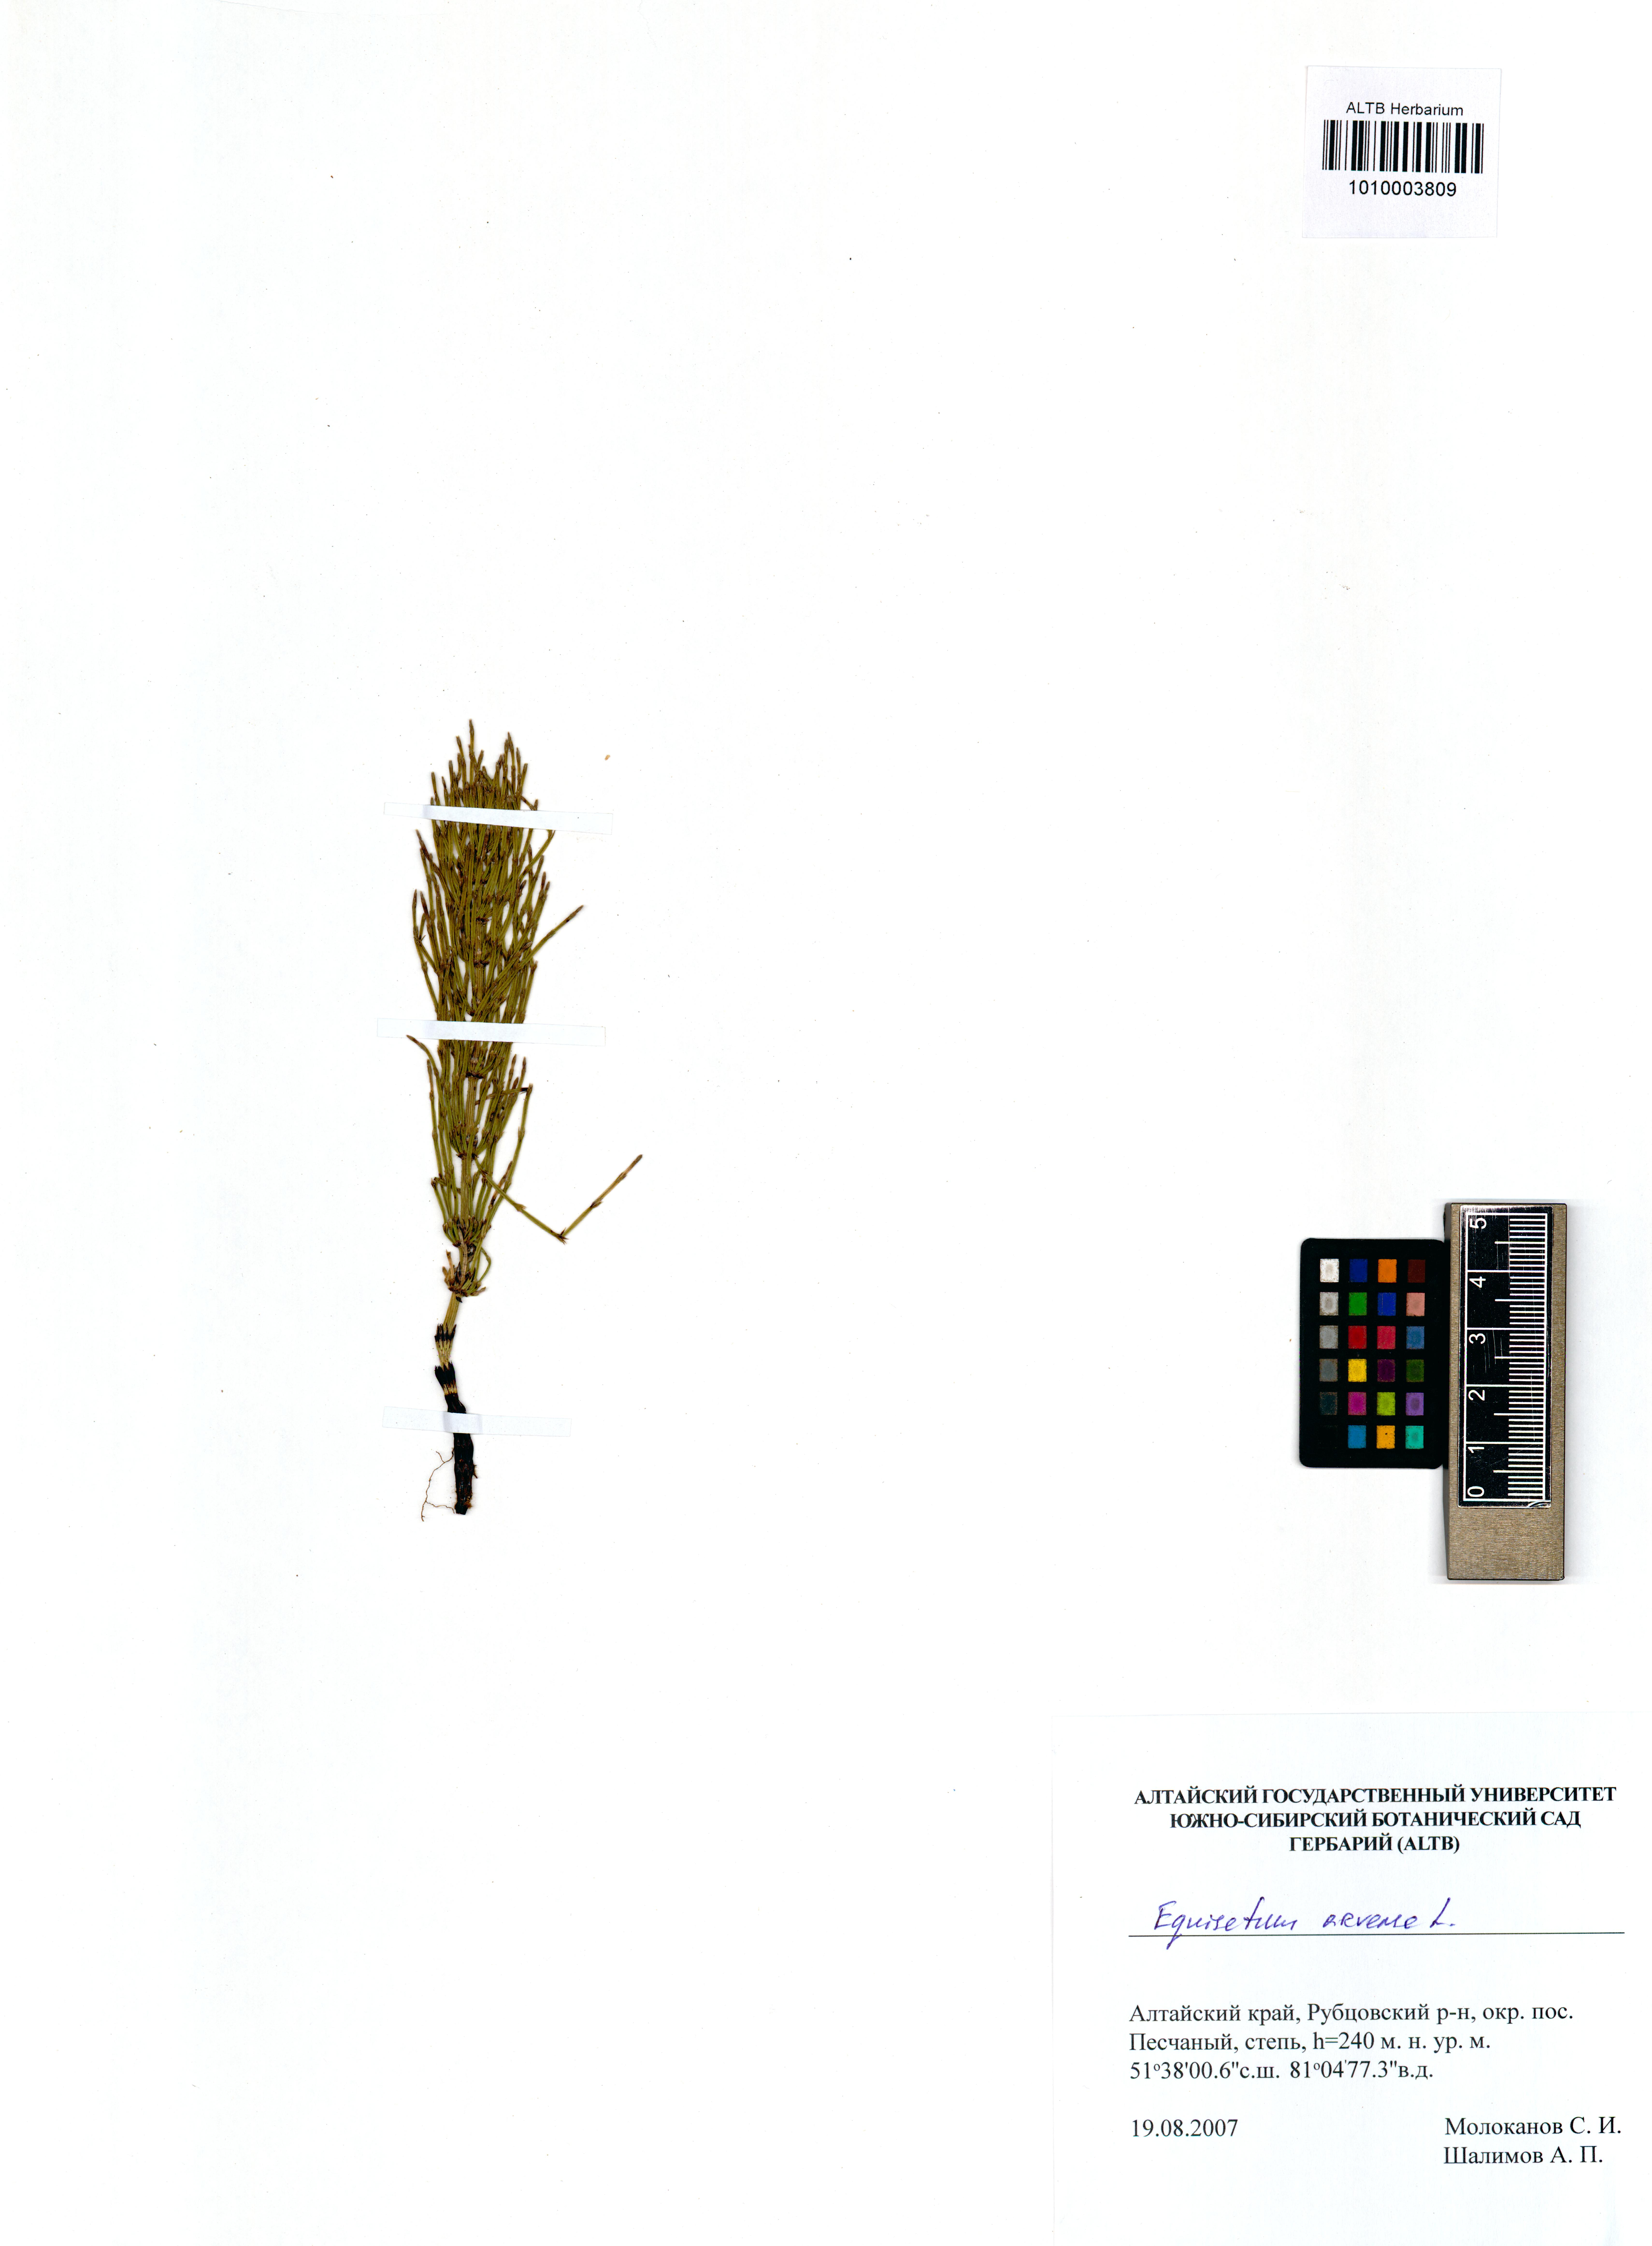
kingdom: Plantae
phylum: Tracheophyta
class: Polypodiopsida
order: Equisetales
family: Equisetaceae
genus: Equisetum
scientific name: Equisetum arvense
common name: Field horsetail
